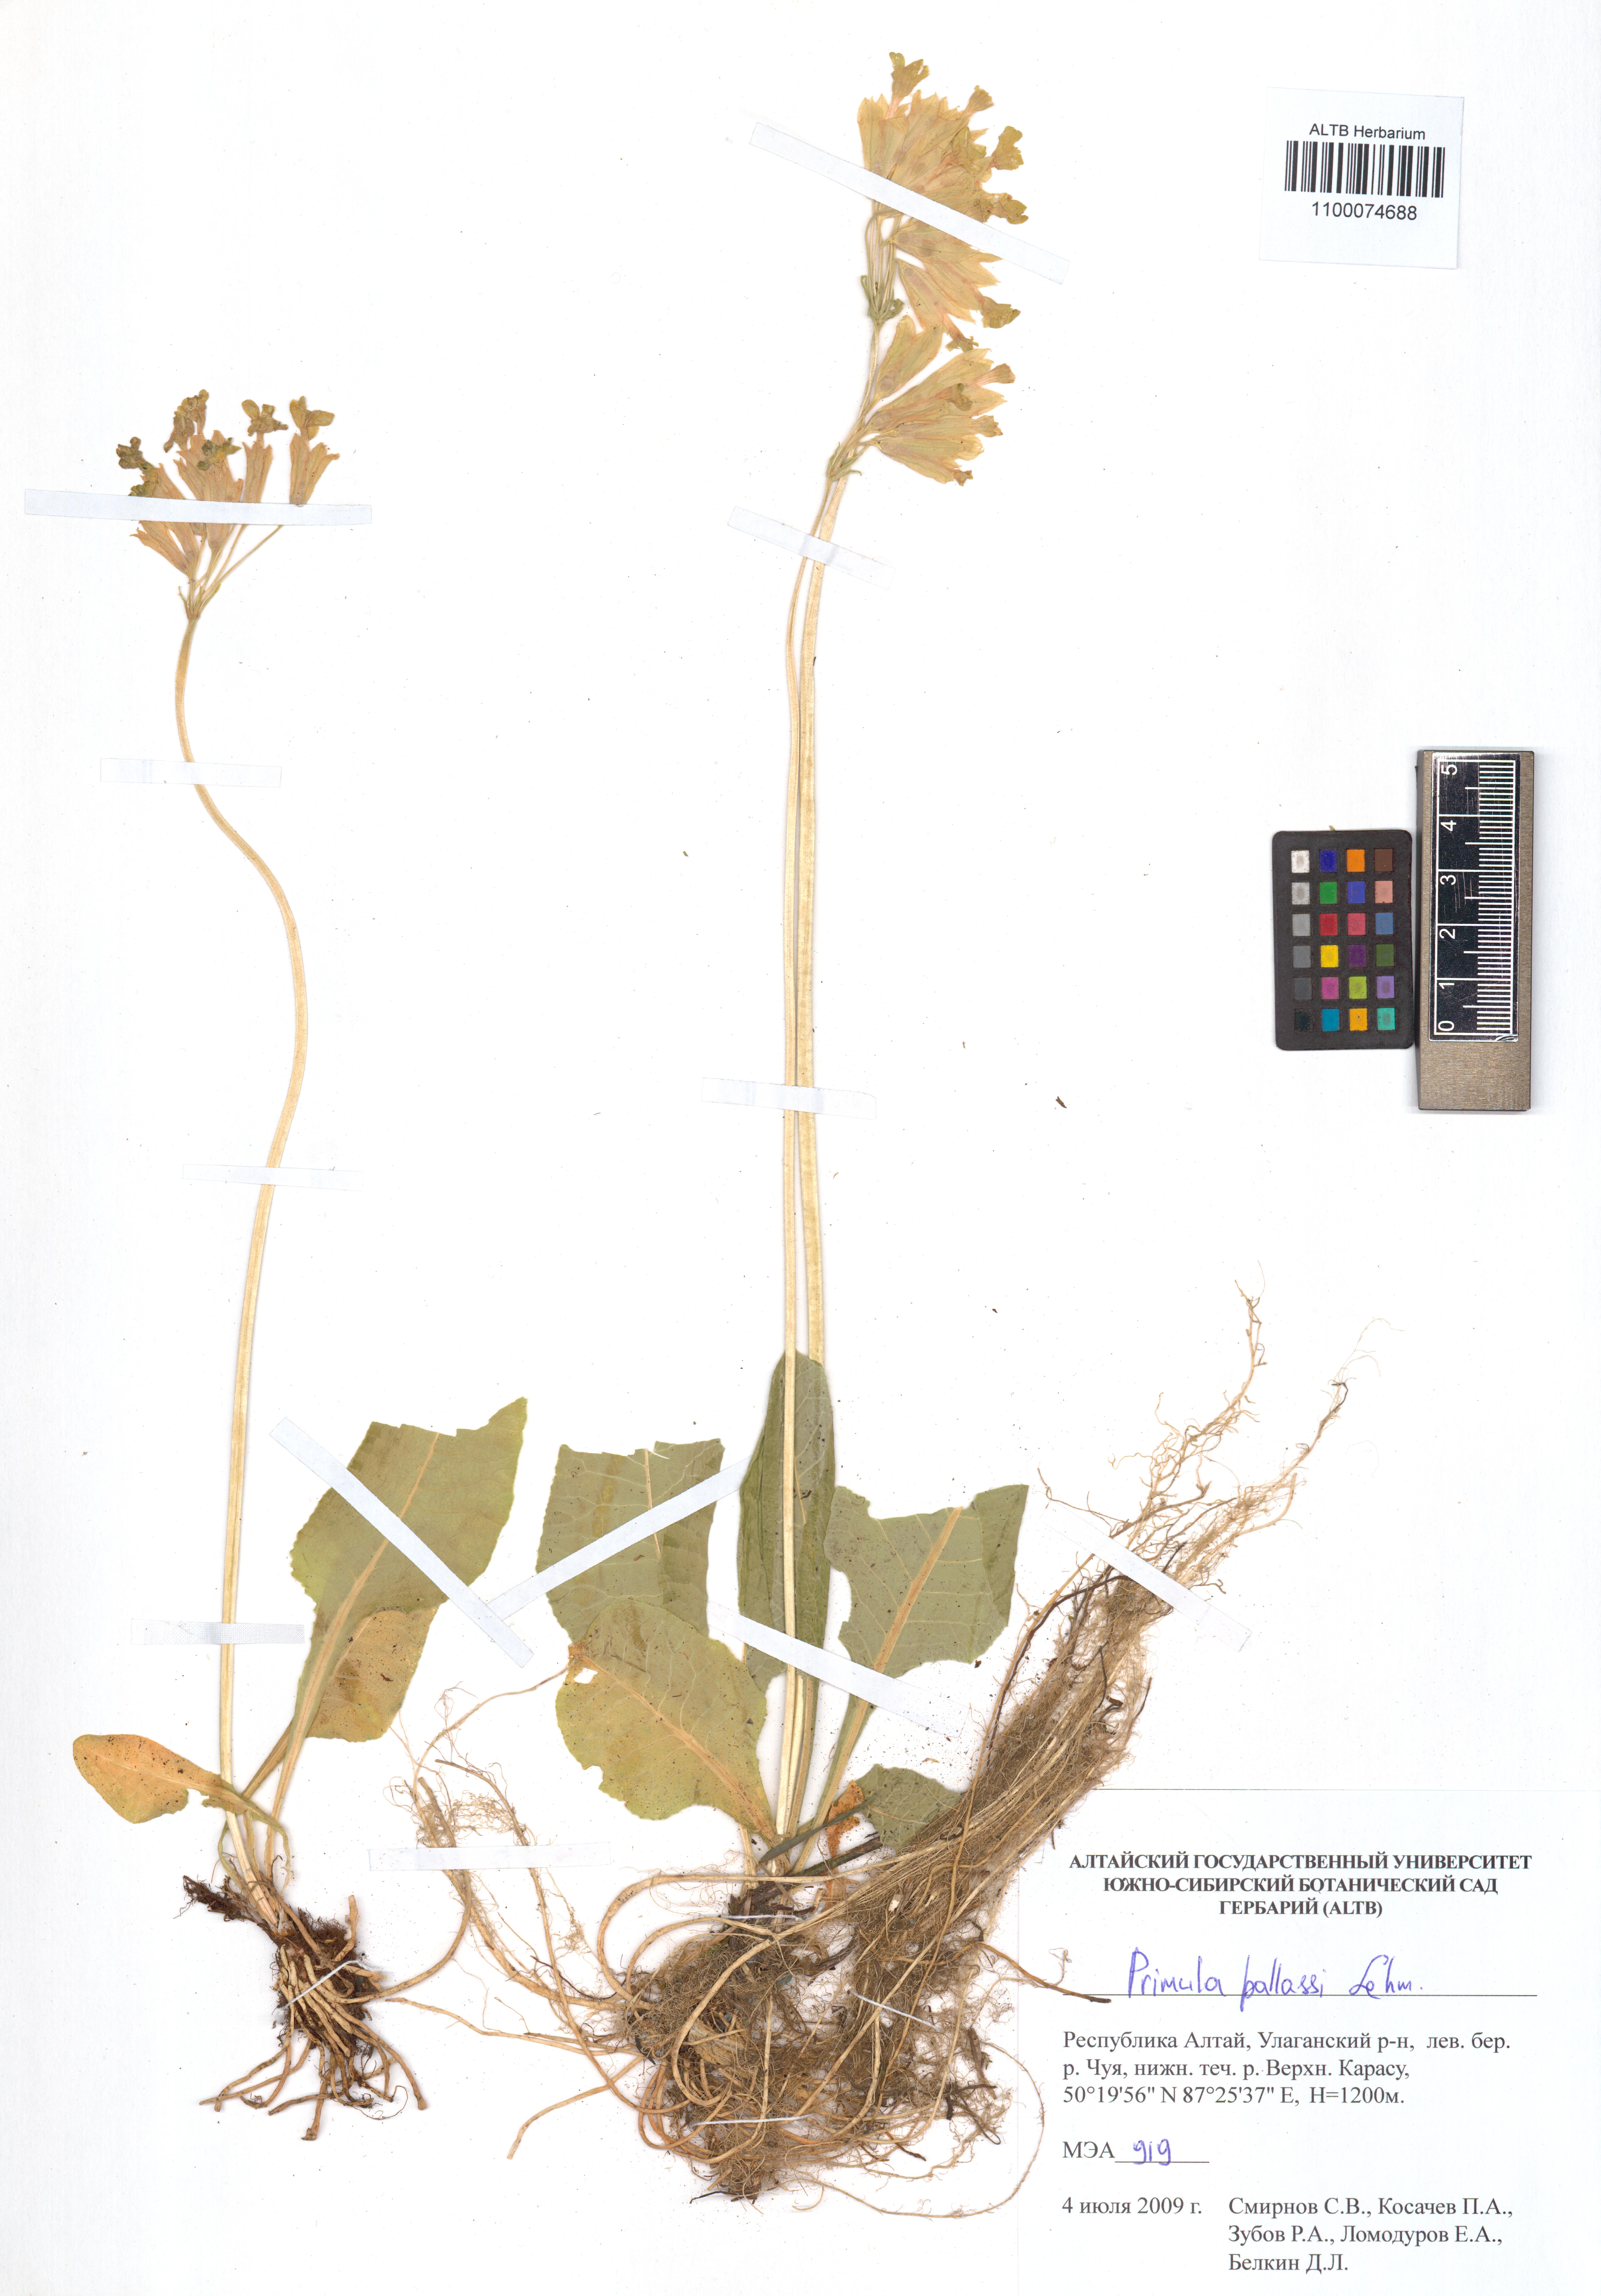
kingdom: Plantae
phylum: Tracheophyta
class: Magnoliopsida
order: Ericales
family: Primulaceae
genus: Primula
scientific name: Primula elatior
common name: Oxlip
